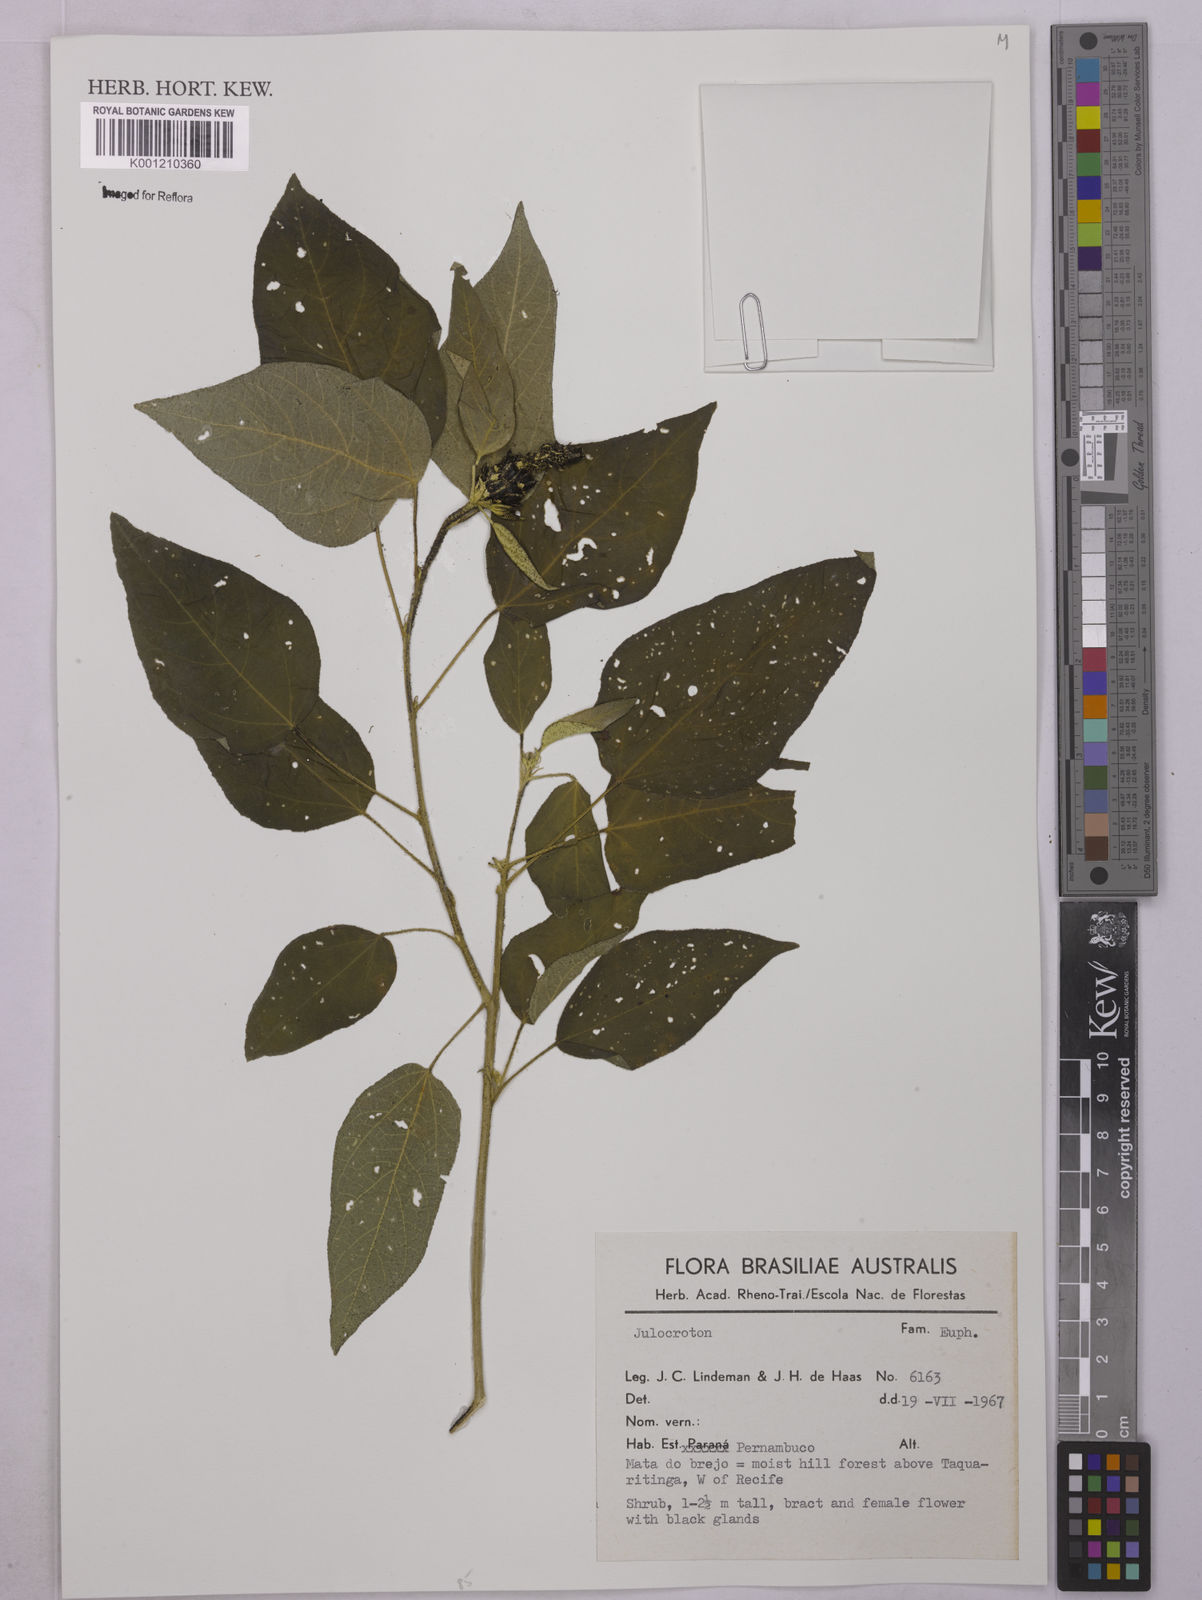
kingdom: Plantae
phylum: Tracheophyta
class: Magnoliopsida
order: Malpighiales
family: Euphorbiaceae
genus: Croton
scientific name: Croton
